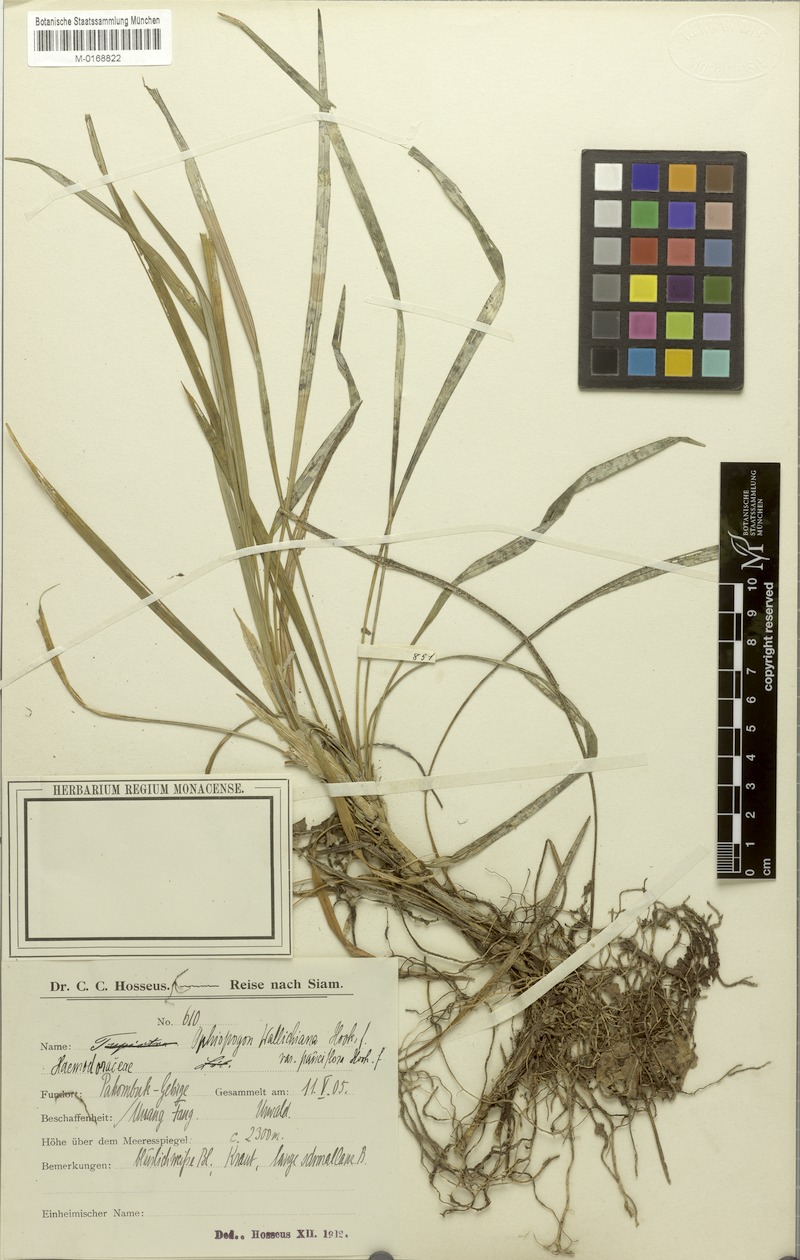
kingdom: Plantae
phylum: Tracheophyta
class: Liliopsida
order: Asparagales
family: Asparagaceae
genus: Ophiopogon
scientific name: Ophiopogon intermedius
